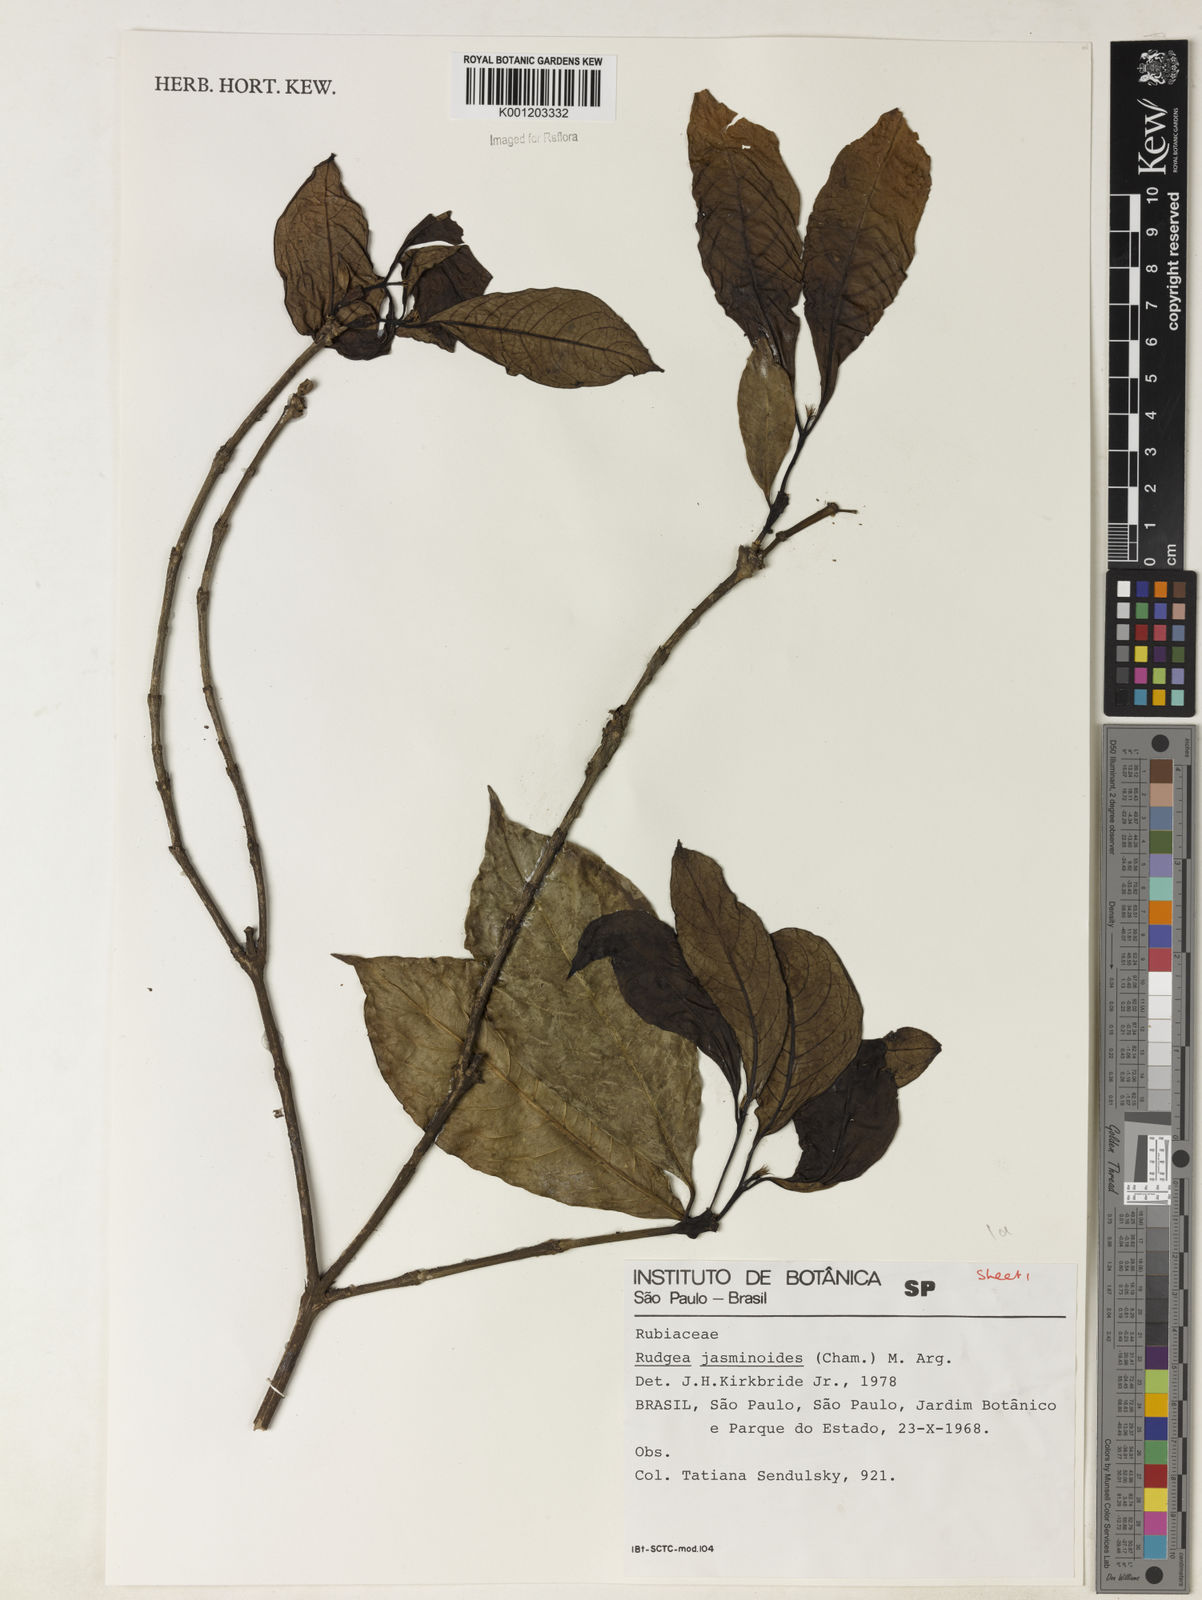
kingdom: Plantae
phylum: Tracheophyta
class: Magnoliopsida
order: Gentianales
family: Rubiaceae
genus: Rudgea
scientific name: Rudgea
